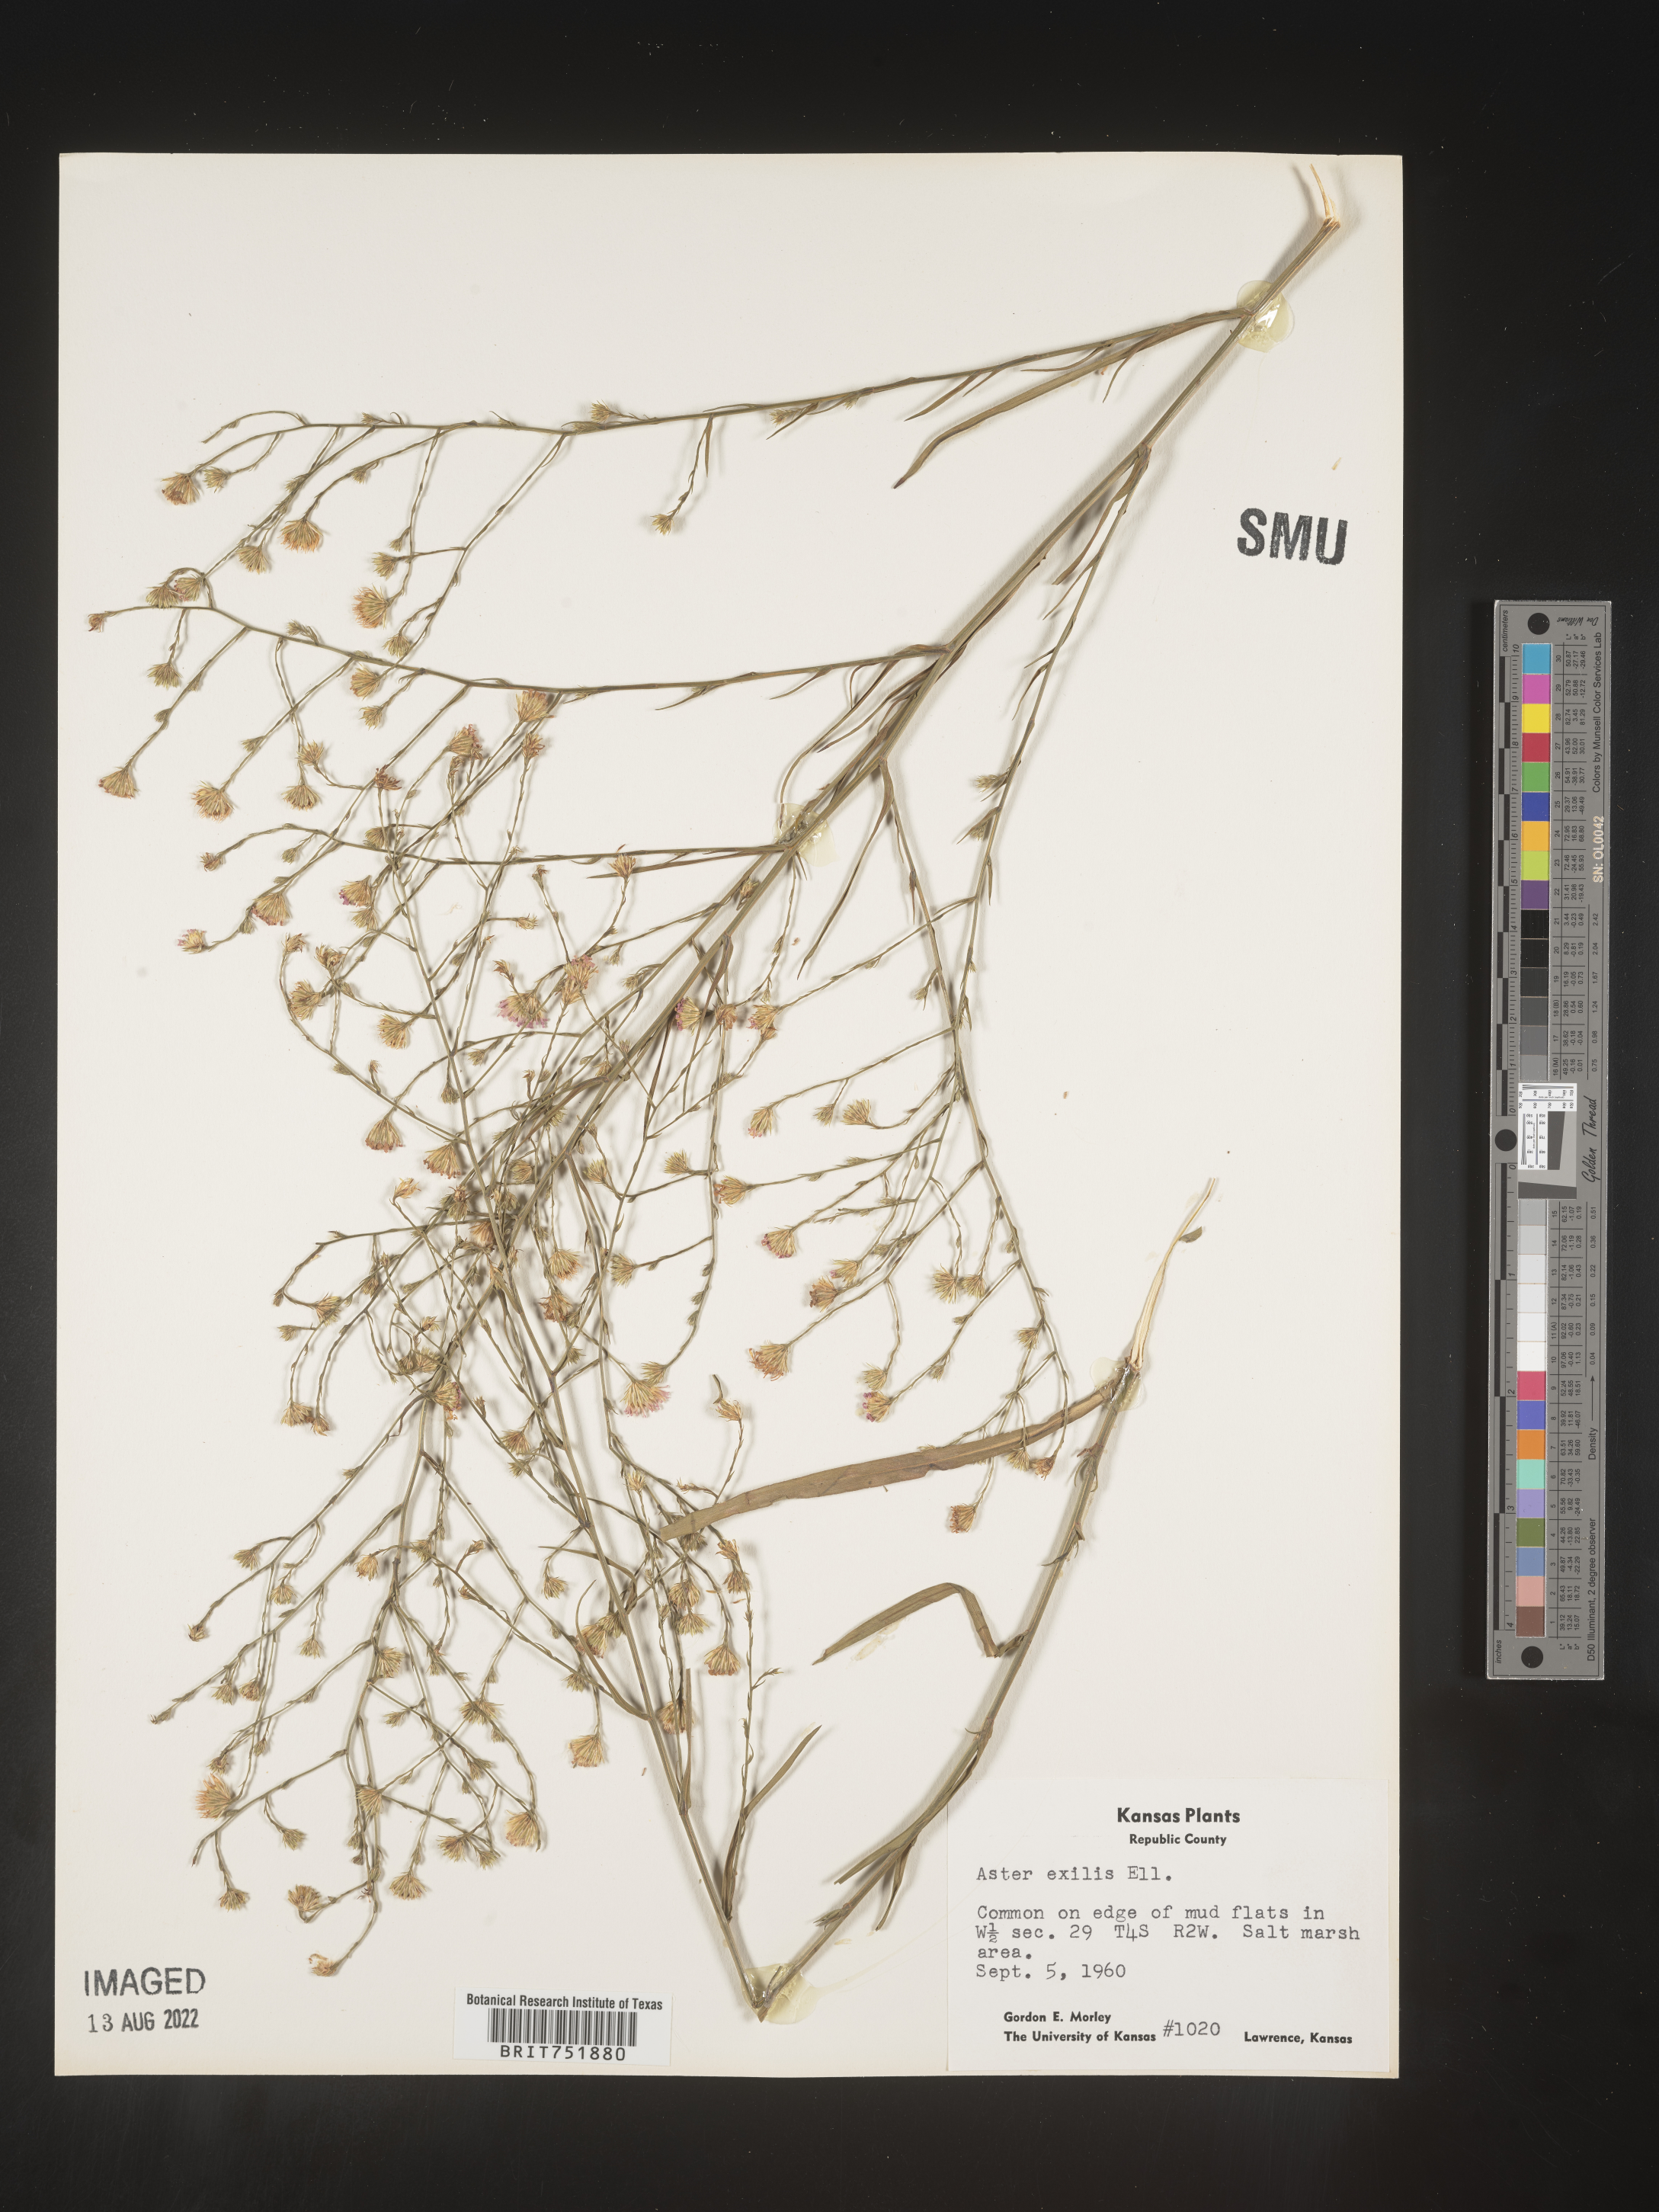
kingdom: Plantae
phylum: Tracheophyta
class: Magnoliopsida
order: Asterales
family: Asteraceae
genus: Symphyotrichum
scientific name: Symphyotrichum divaricatum
